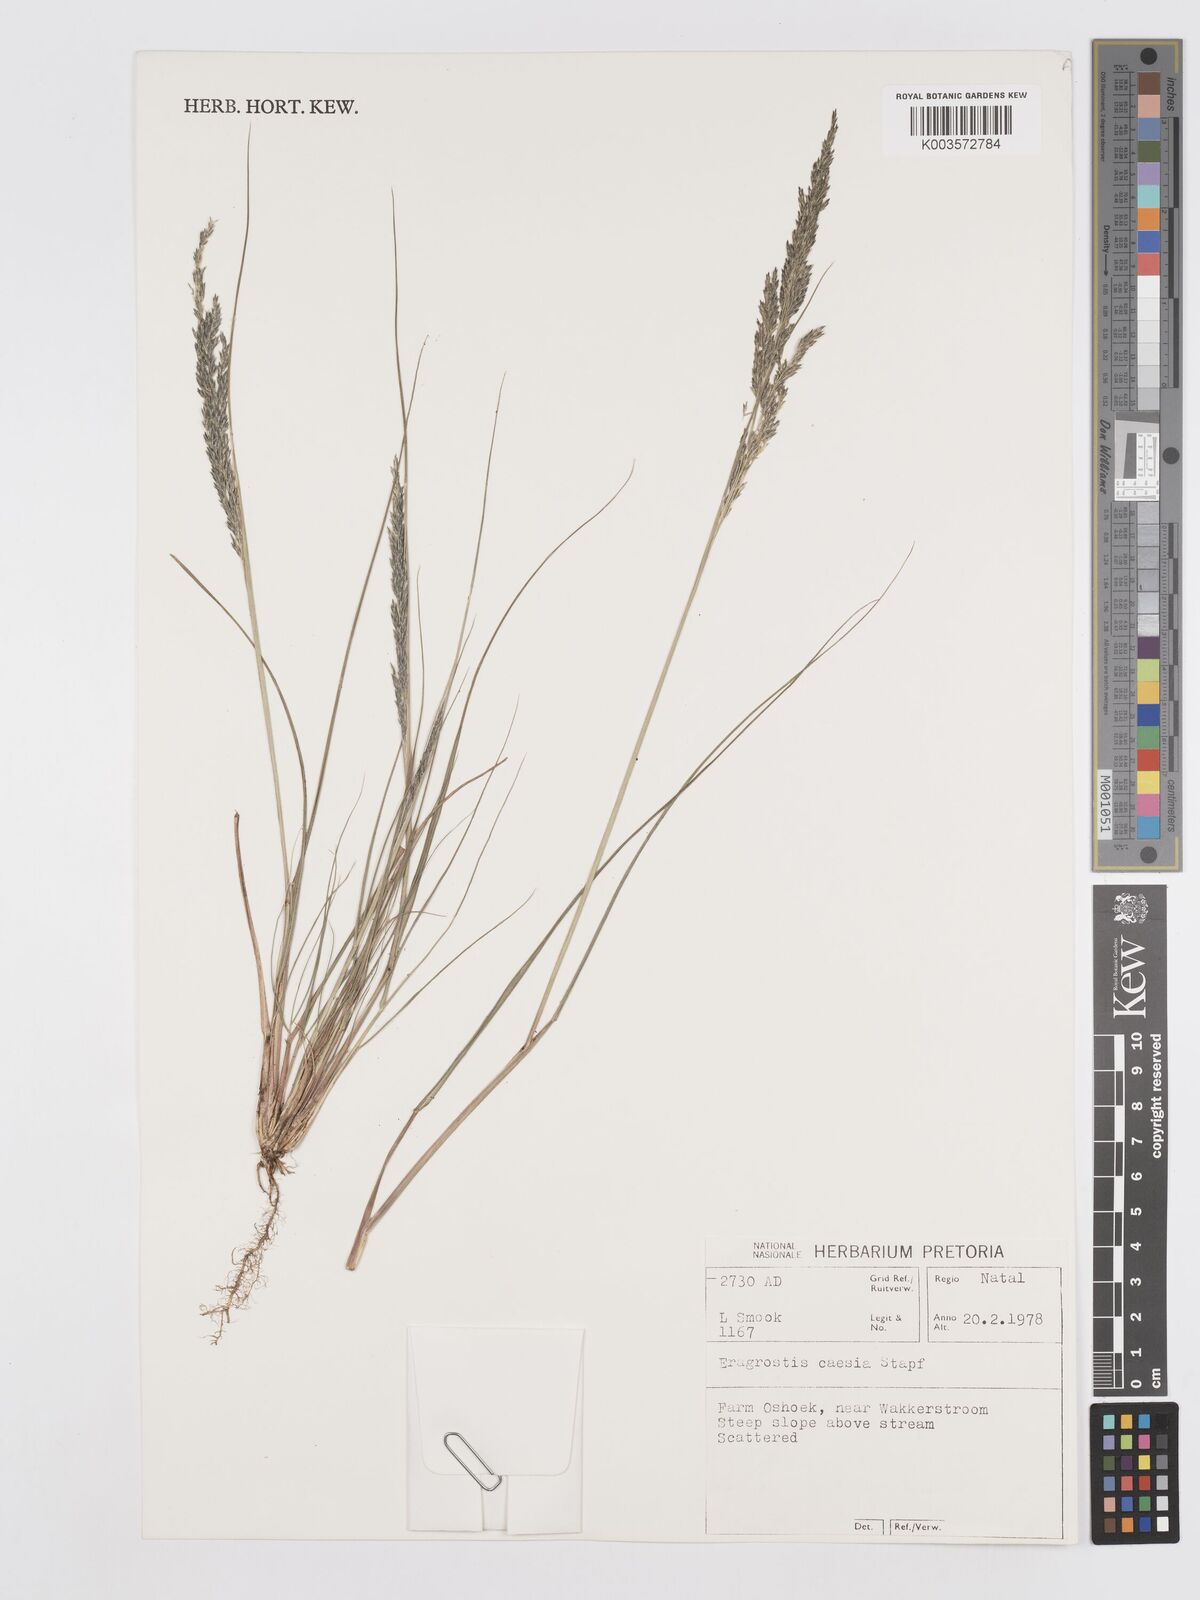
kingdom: Plantae
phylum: Tracheophyta
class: Liliopsida
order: Poales
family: Poaceae
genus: Eragrostis
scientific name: Eragrostis caesia
